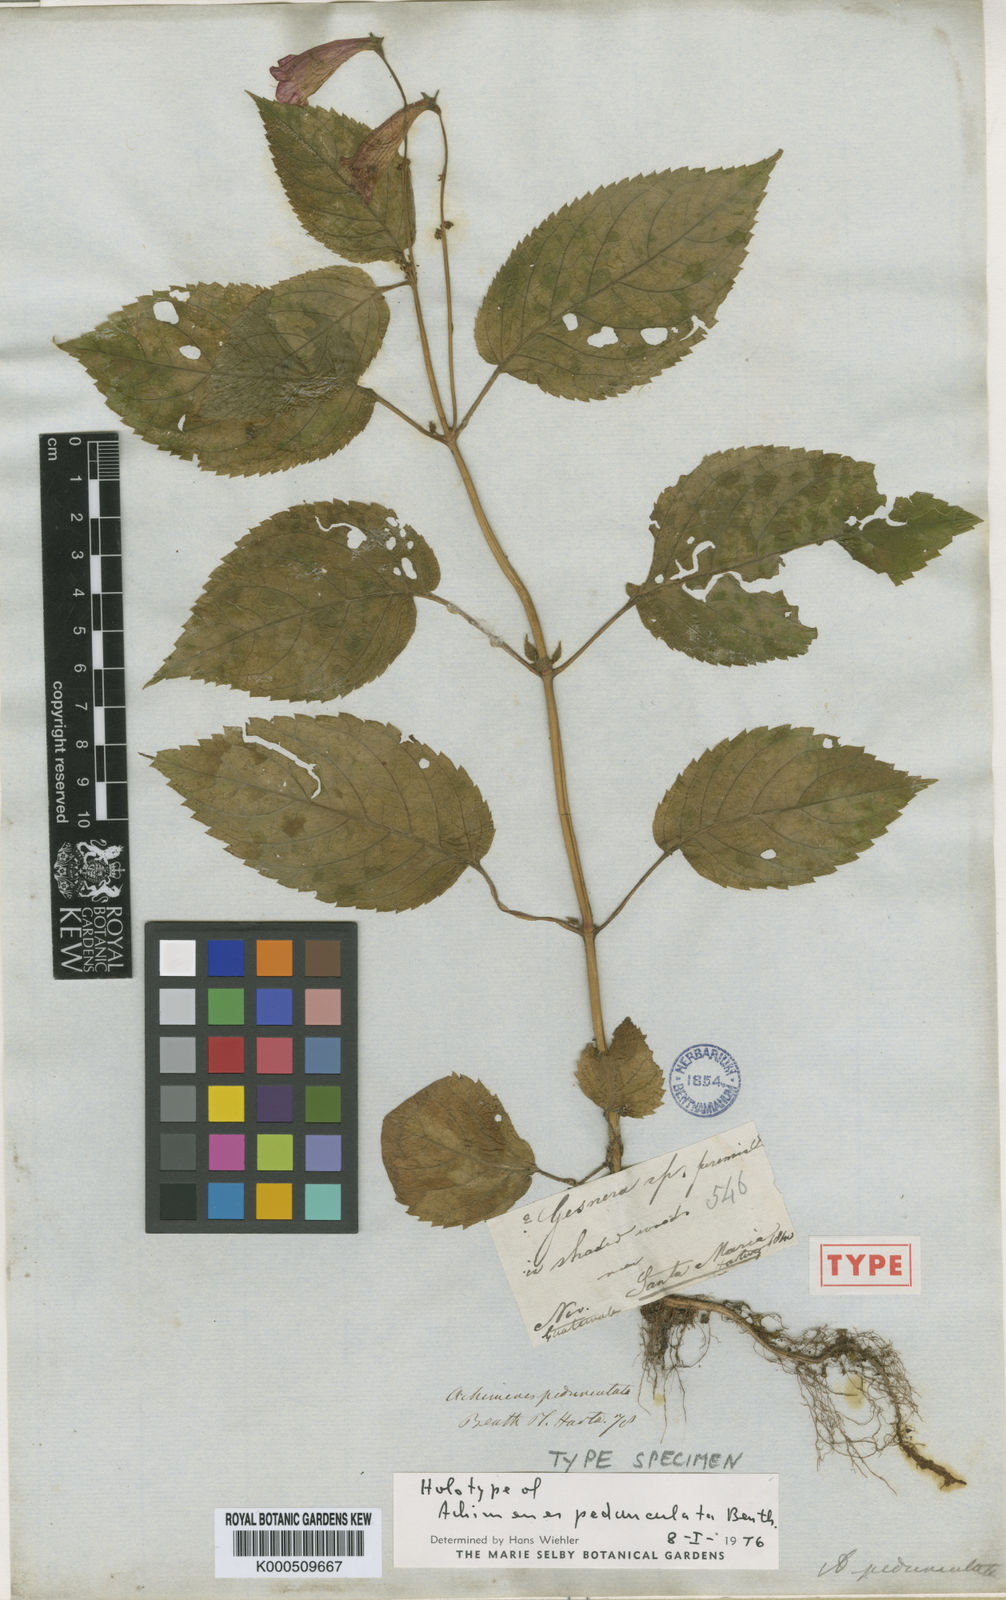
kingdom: Plantae
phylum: Tracheophyta
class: Magnoliopsida
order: Lamiales
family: Gesneriaceae
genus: Achimenes
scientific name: Achimenes pedunculata
